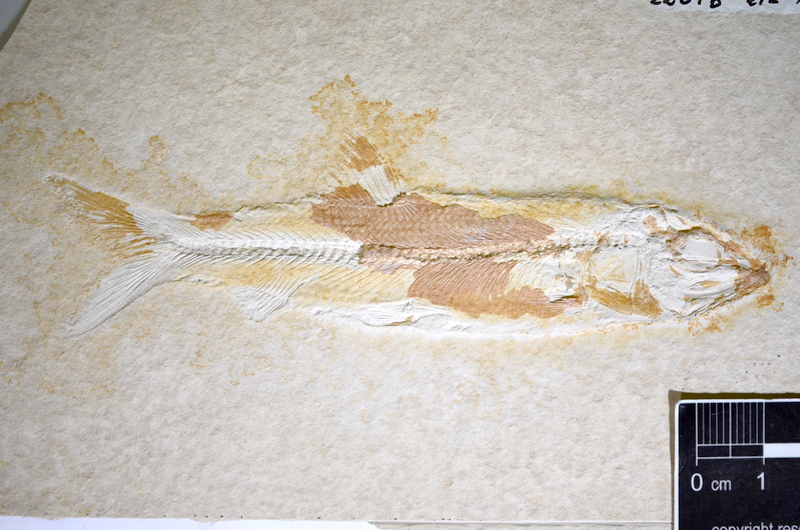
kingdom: Animalia
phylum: Chordata
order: Elopiformes
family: Anaethalionidae
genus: Anaethalion
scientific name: Anaethalion angustus
